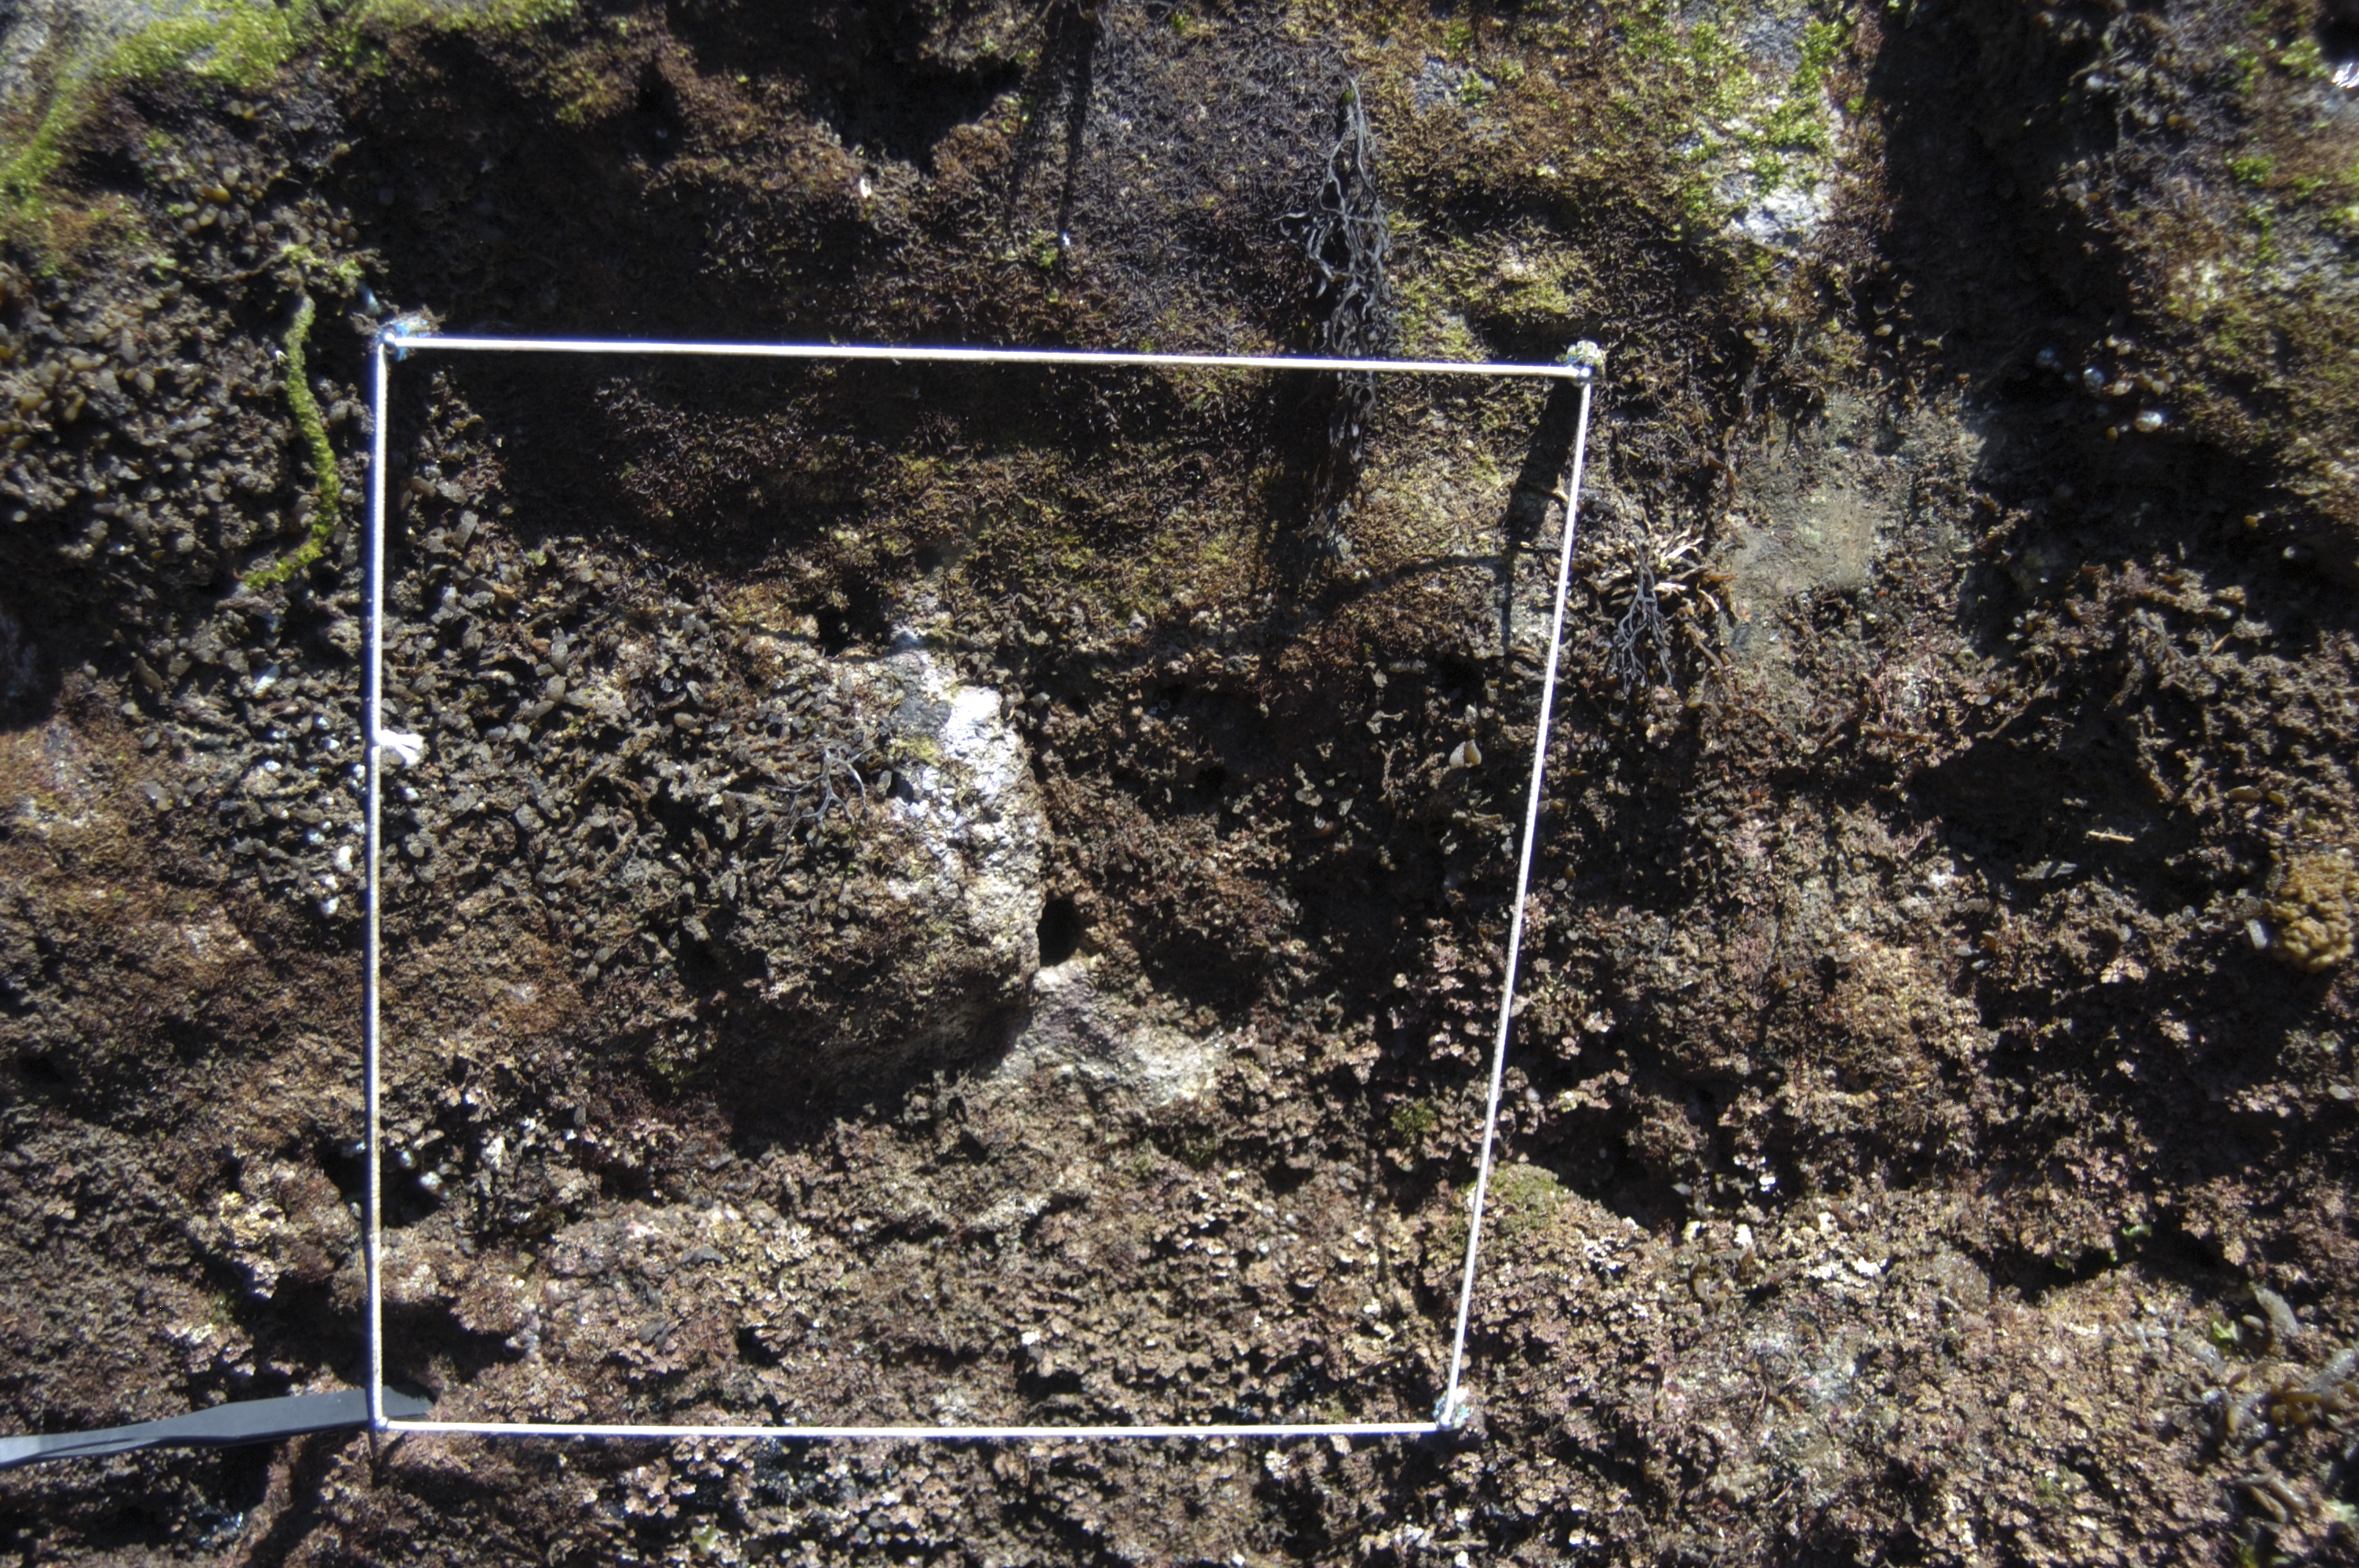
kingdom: Chromista
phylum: Ochrophyta
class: Phaeophyceae
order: Fucales
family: Sargassaceae
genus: Sargassum
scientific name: Sargassum fusiforme
